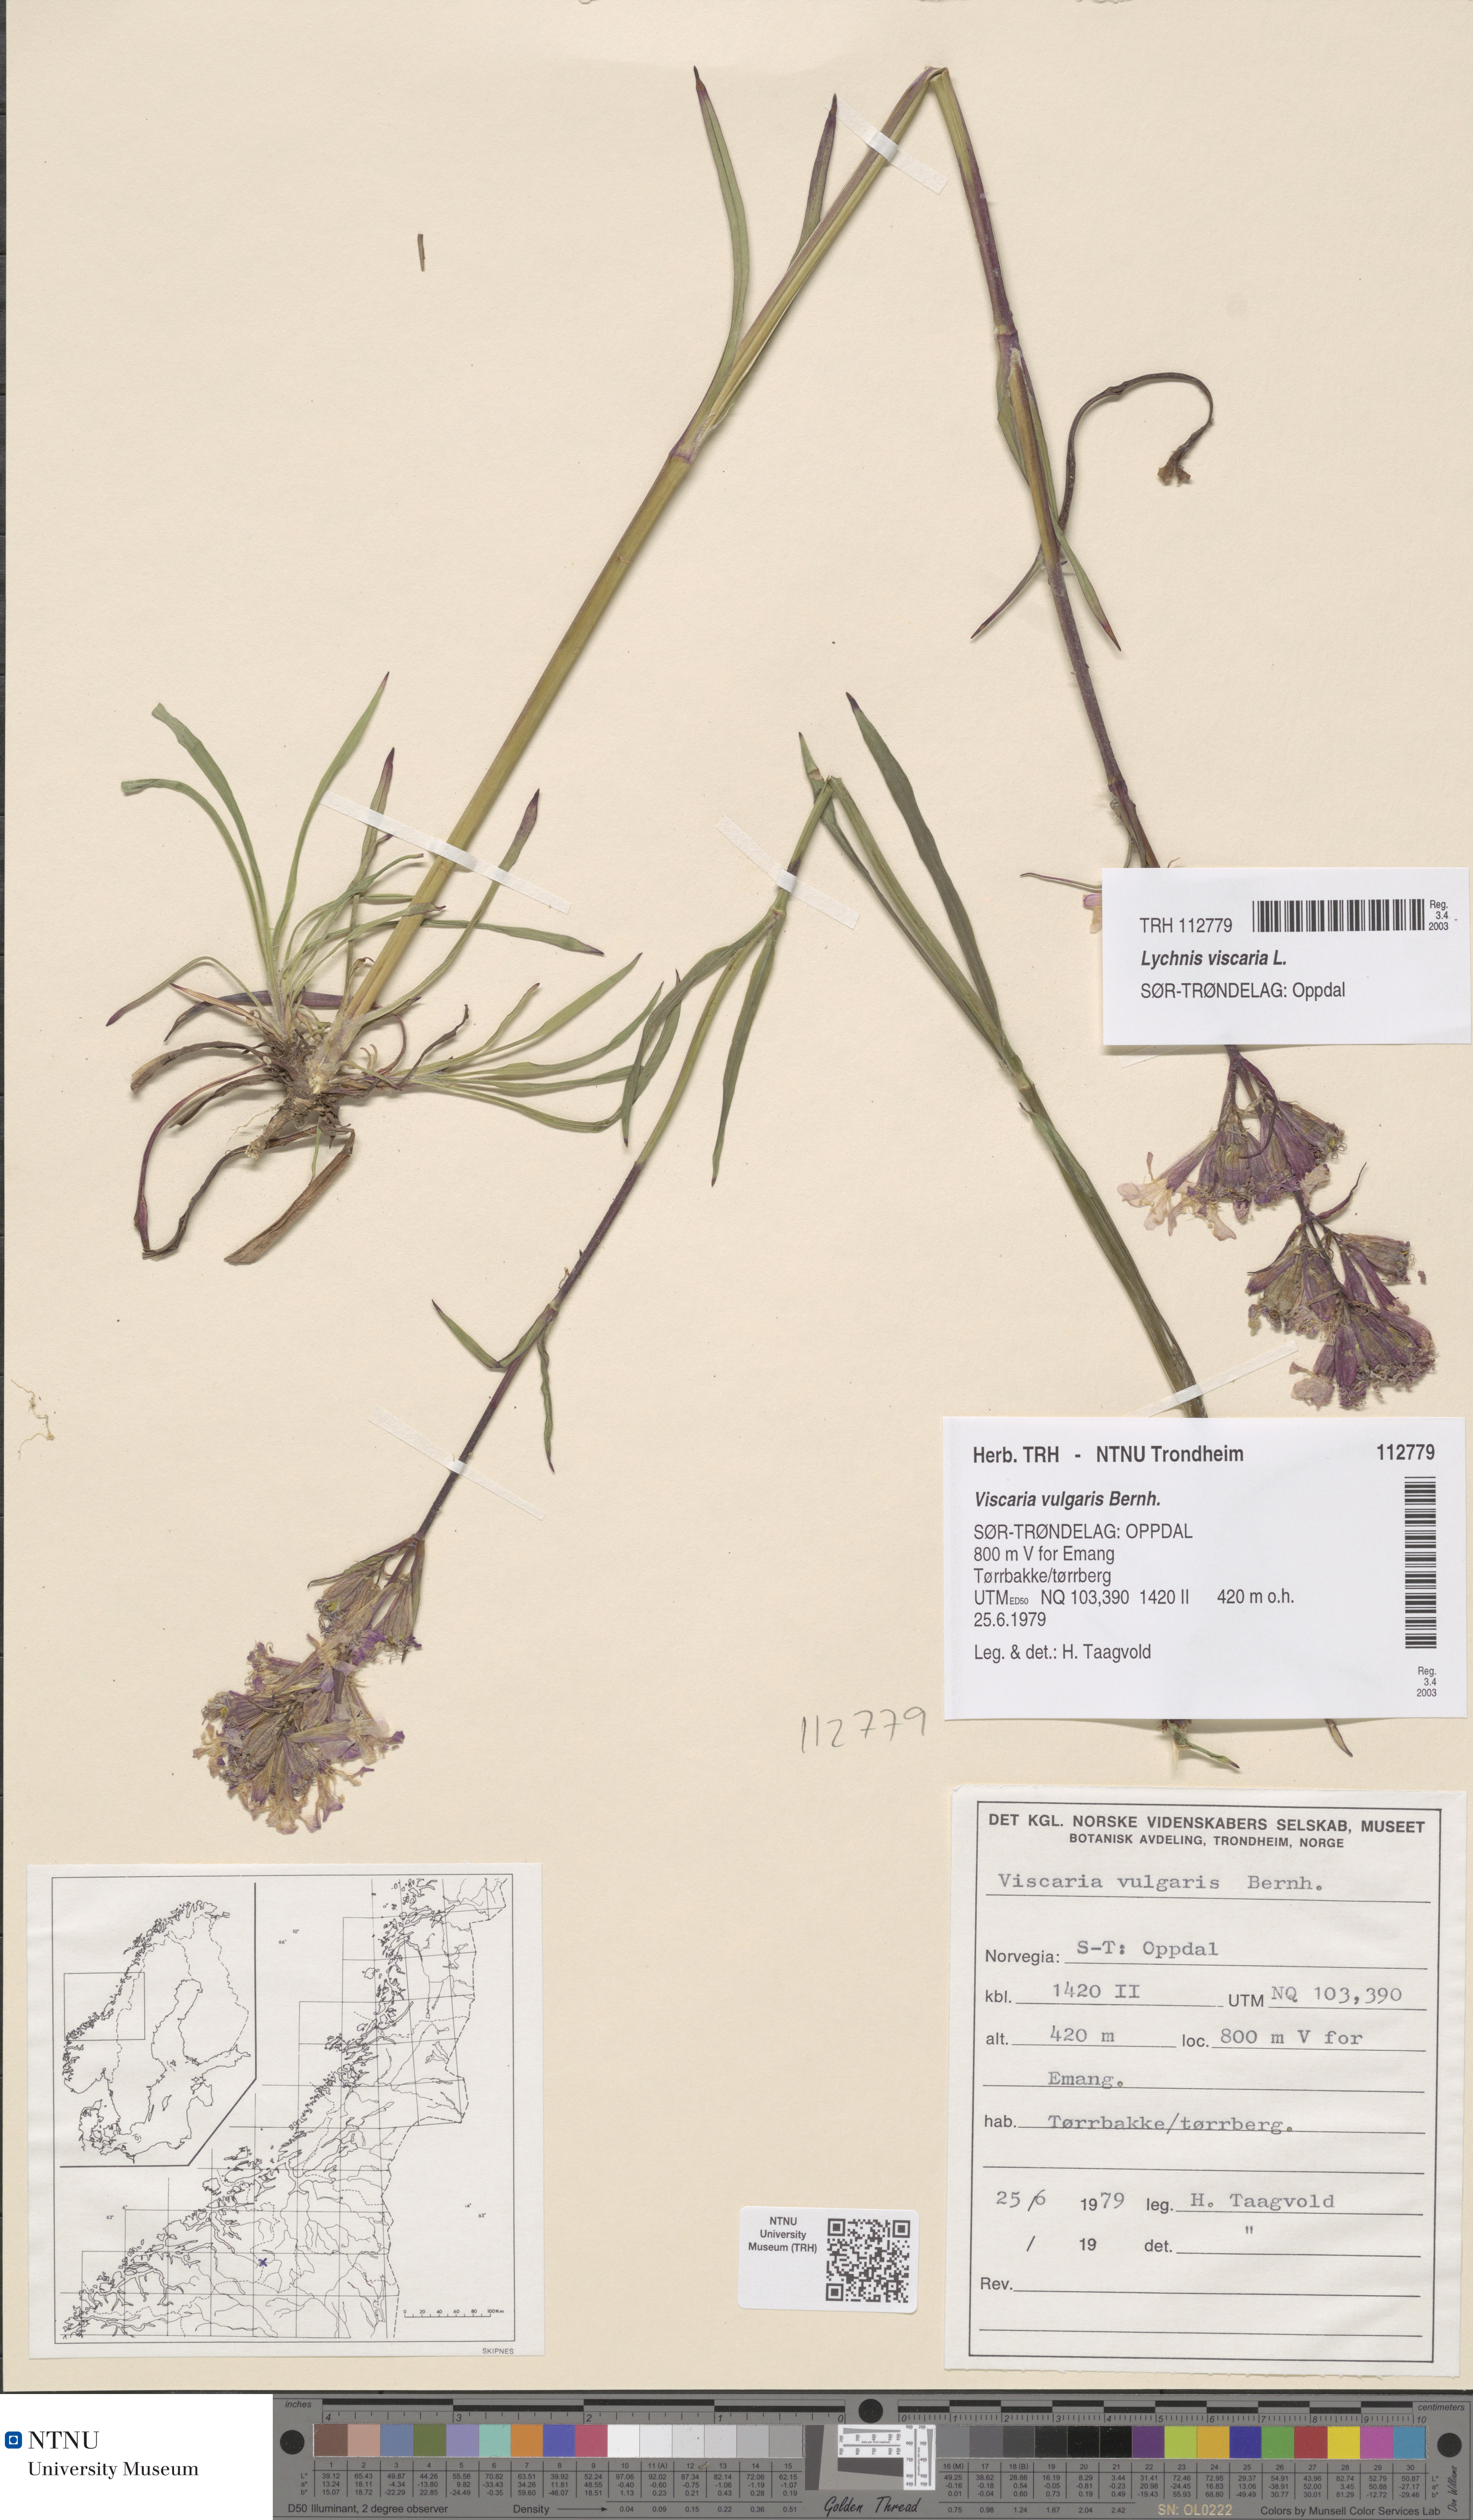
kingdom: Plantae
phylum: Tracheophyta
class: Magnoliopsida
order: Caryophyllales
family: Caryophyllaceae
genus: Viscaria
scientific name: Viscaria vulgaris
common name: Clammy campion
